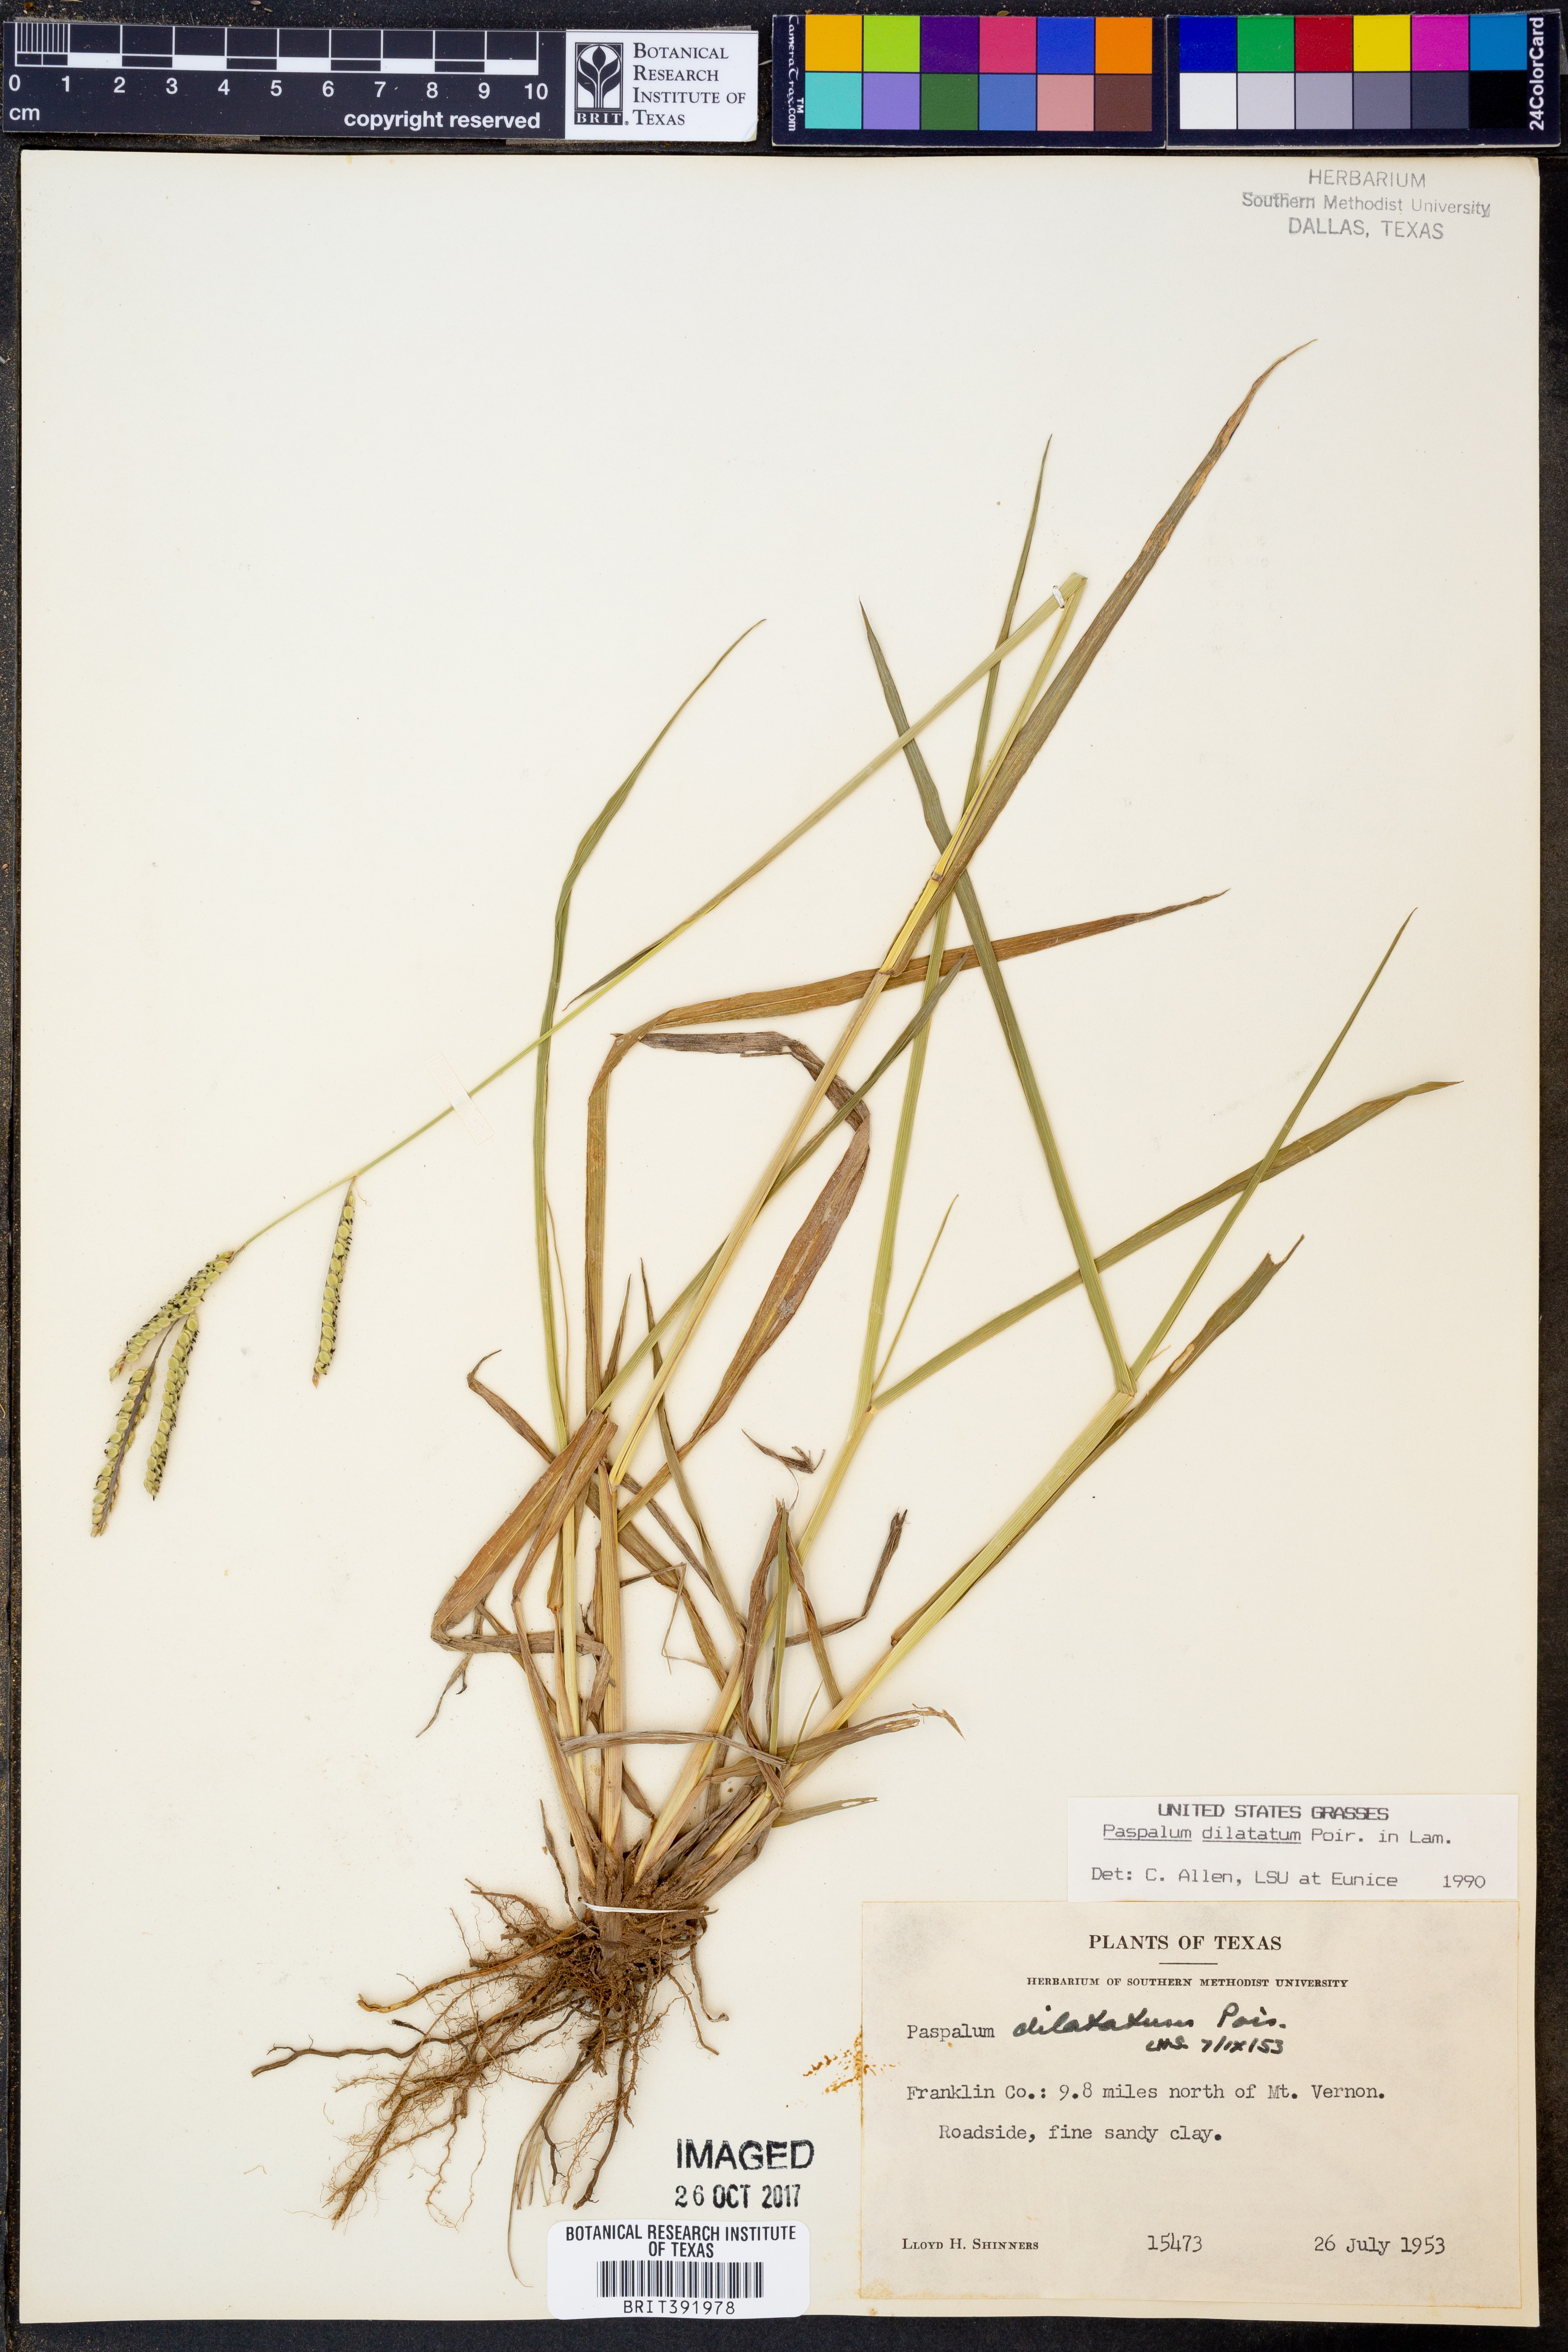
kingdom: Plantae
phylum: Tracheophyta
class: Liliopsida
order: Poales
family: Poaceae
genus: Paspalum
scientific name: Paspalum dilatatum
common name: Dallisgrass
